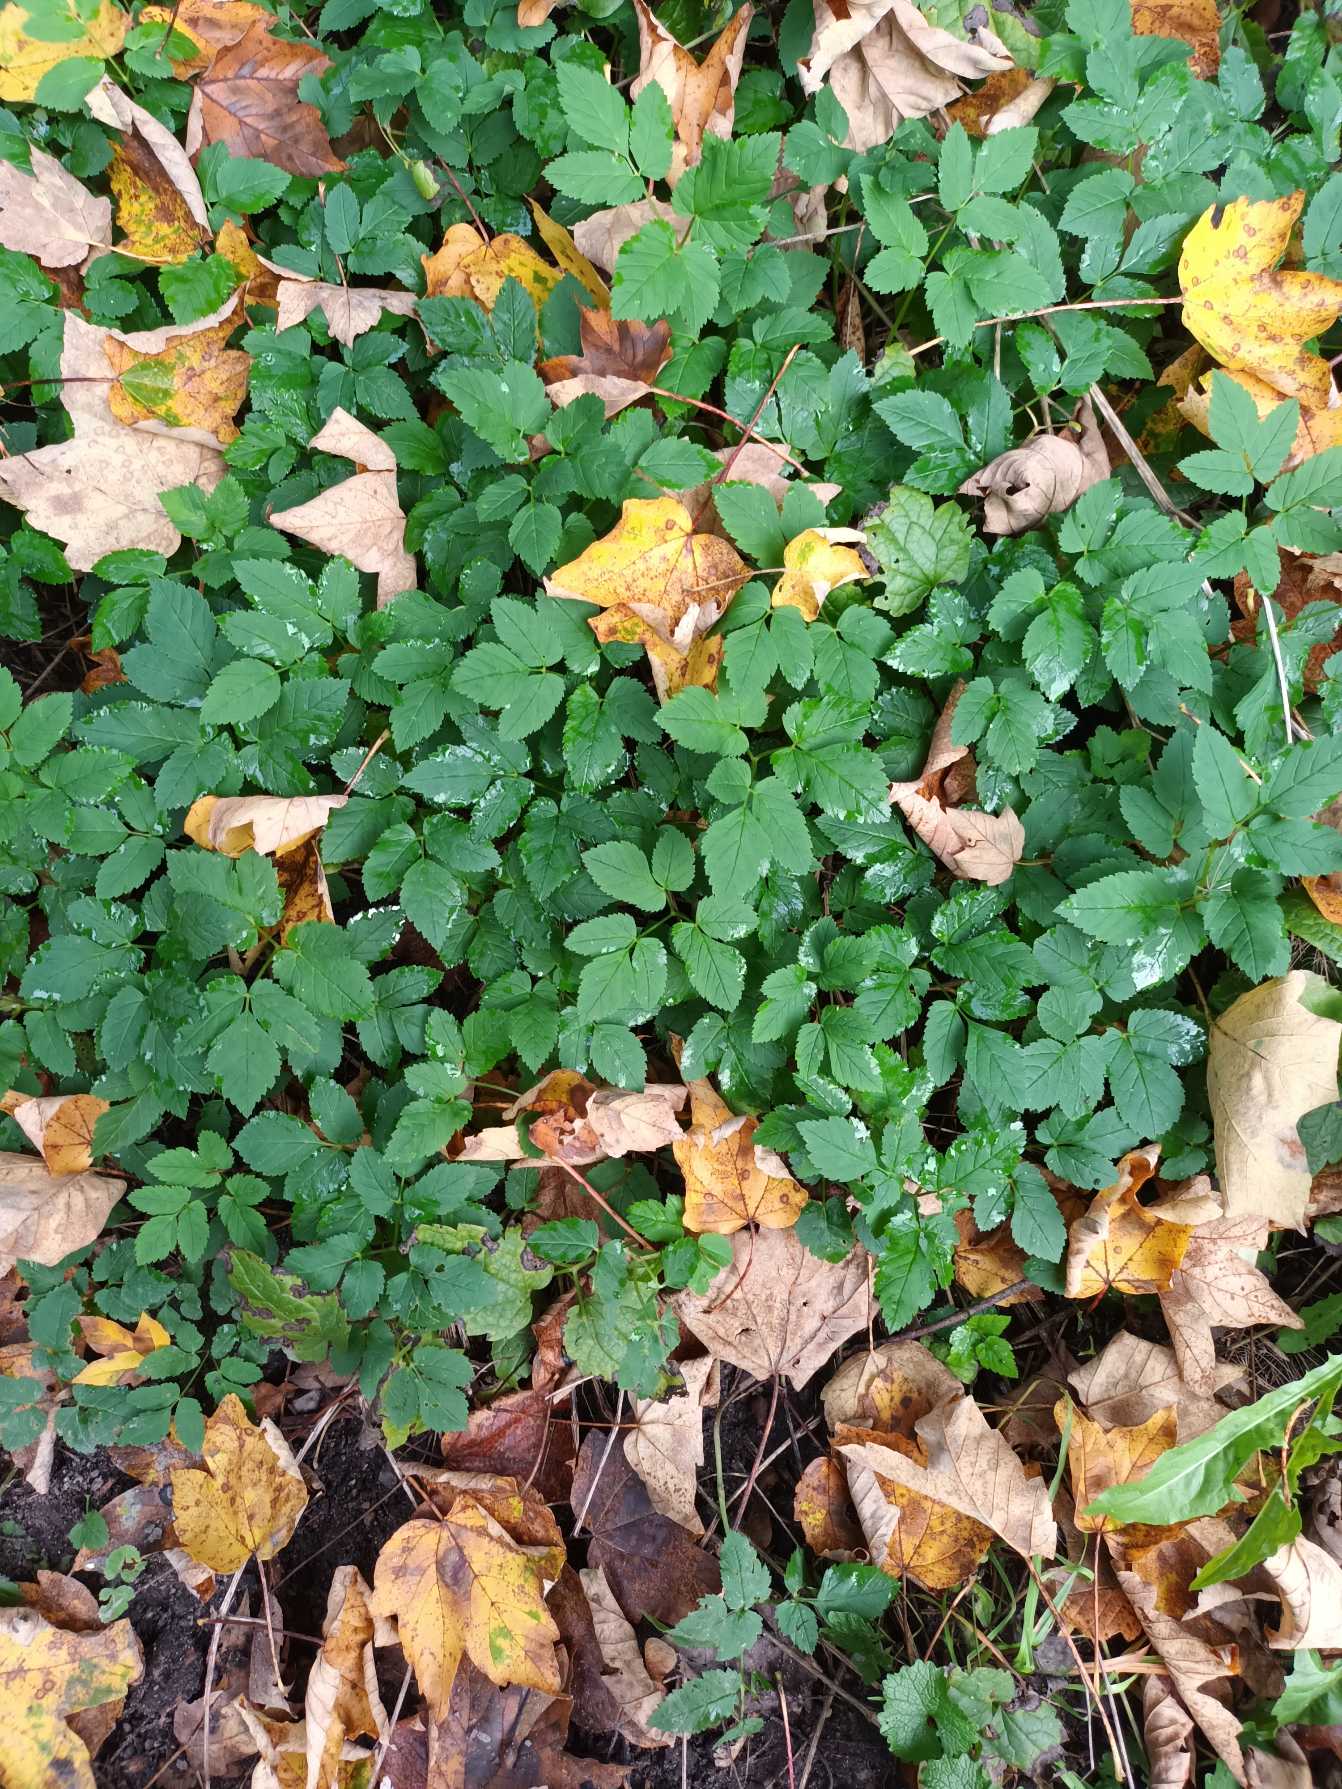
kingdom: Plantae
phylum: Tracheophyta
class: Magnoliopsida
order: Apiales
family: Apiaceae
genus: Aegopodium
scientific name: Aegopodium podagraria
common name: Skvalderkål
